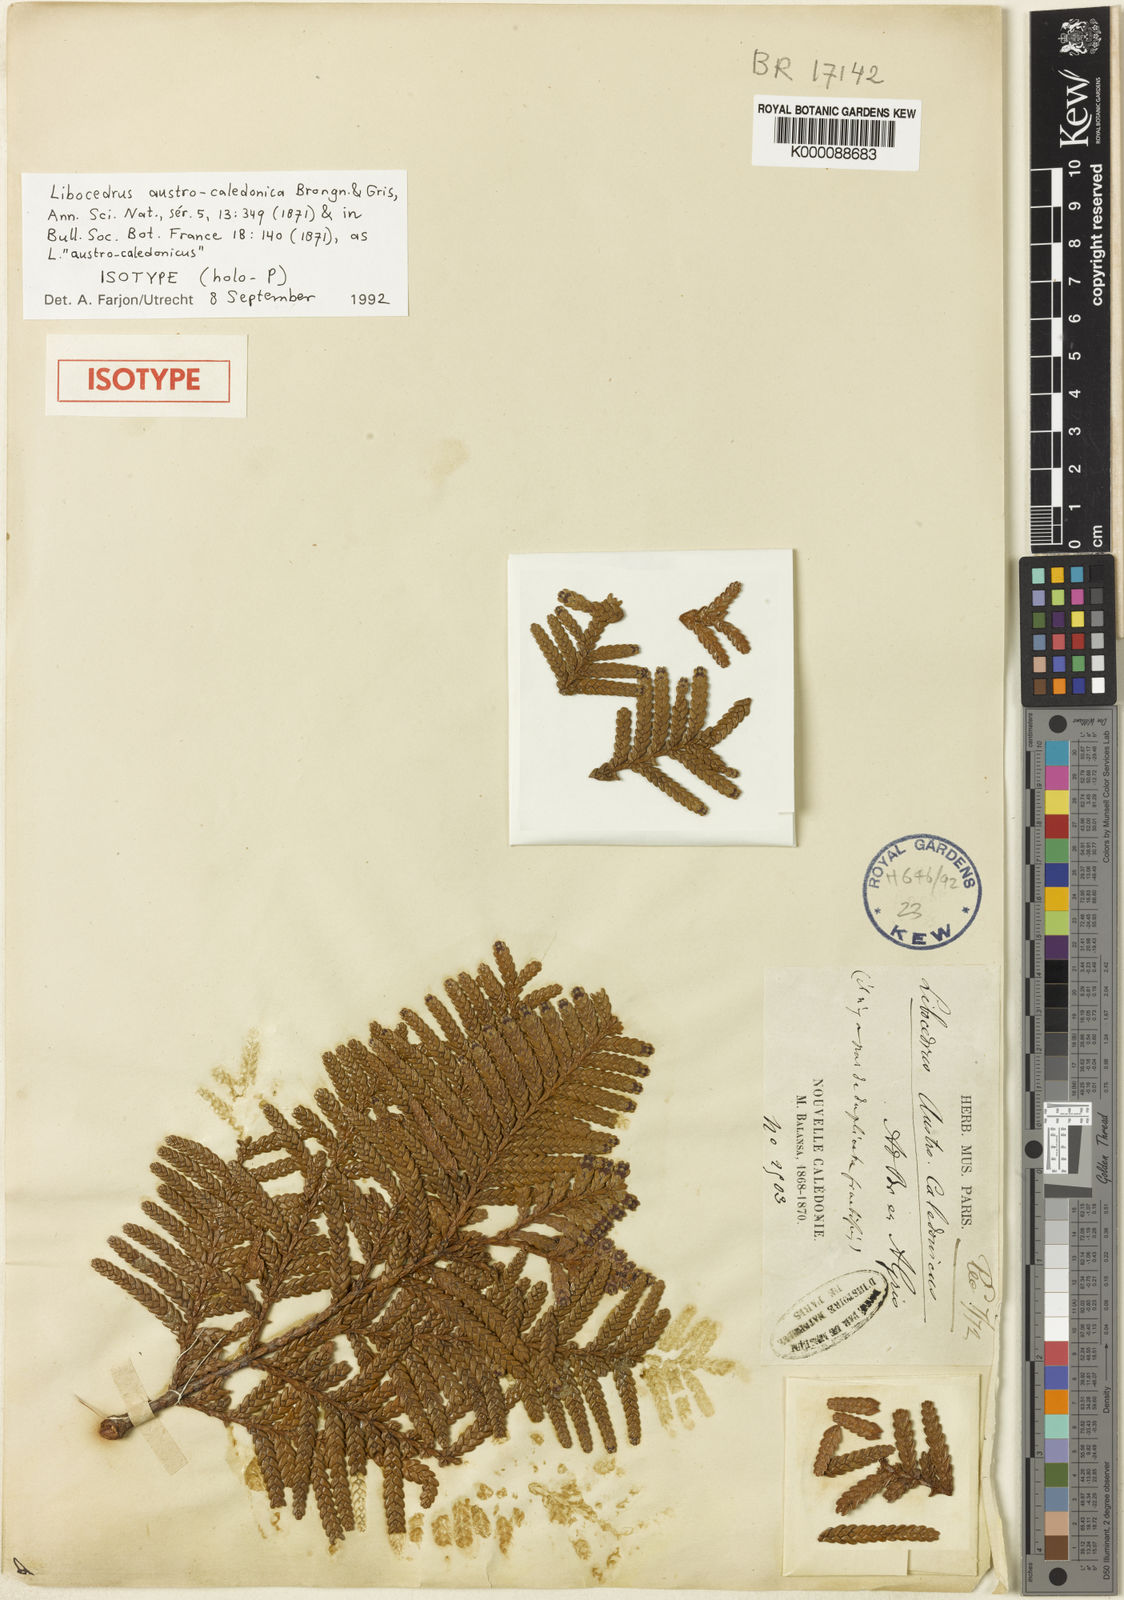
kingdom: Plantae
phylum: Tracheophyta
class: Pinopsida
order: Pinales
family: Cupressaceae
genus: Libocedrus
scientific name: Libocedrus austrocaledonica
